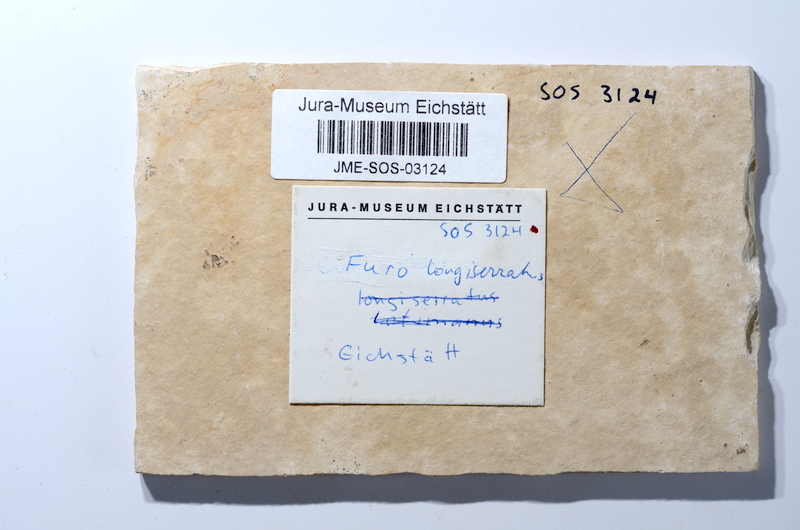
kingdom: Animalia
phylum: Chordata
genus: Zandtfuro
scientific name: Zandtfuro tischlingeri
